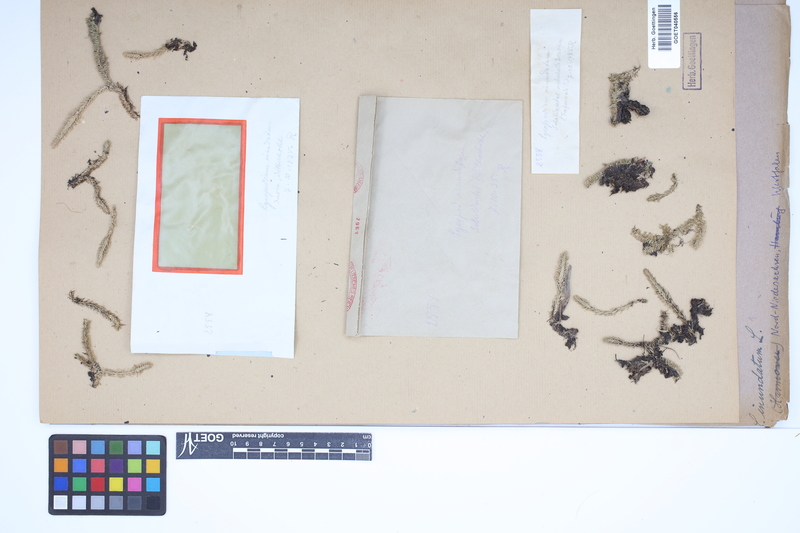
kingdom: Plantae
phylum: Tracheophyta
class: Lycopodiopsida
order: Lycopodiales
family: Lycopodiaceae
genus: Lycopodiella
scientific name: Lycopodiella inundata
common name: Marsh clubmoss
